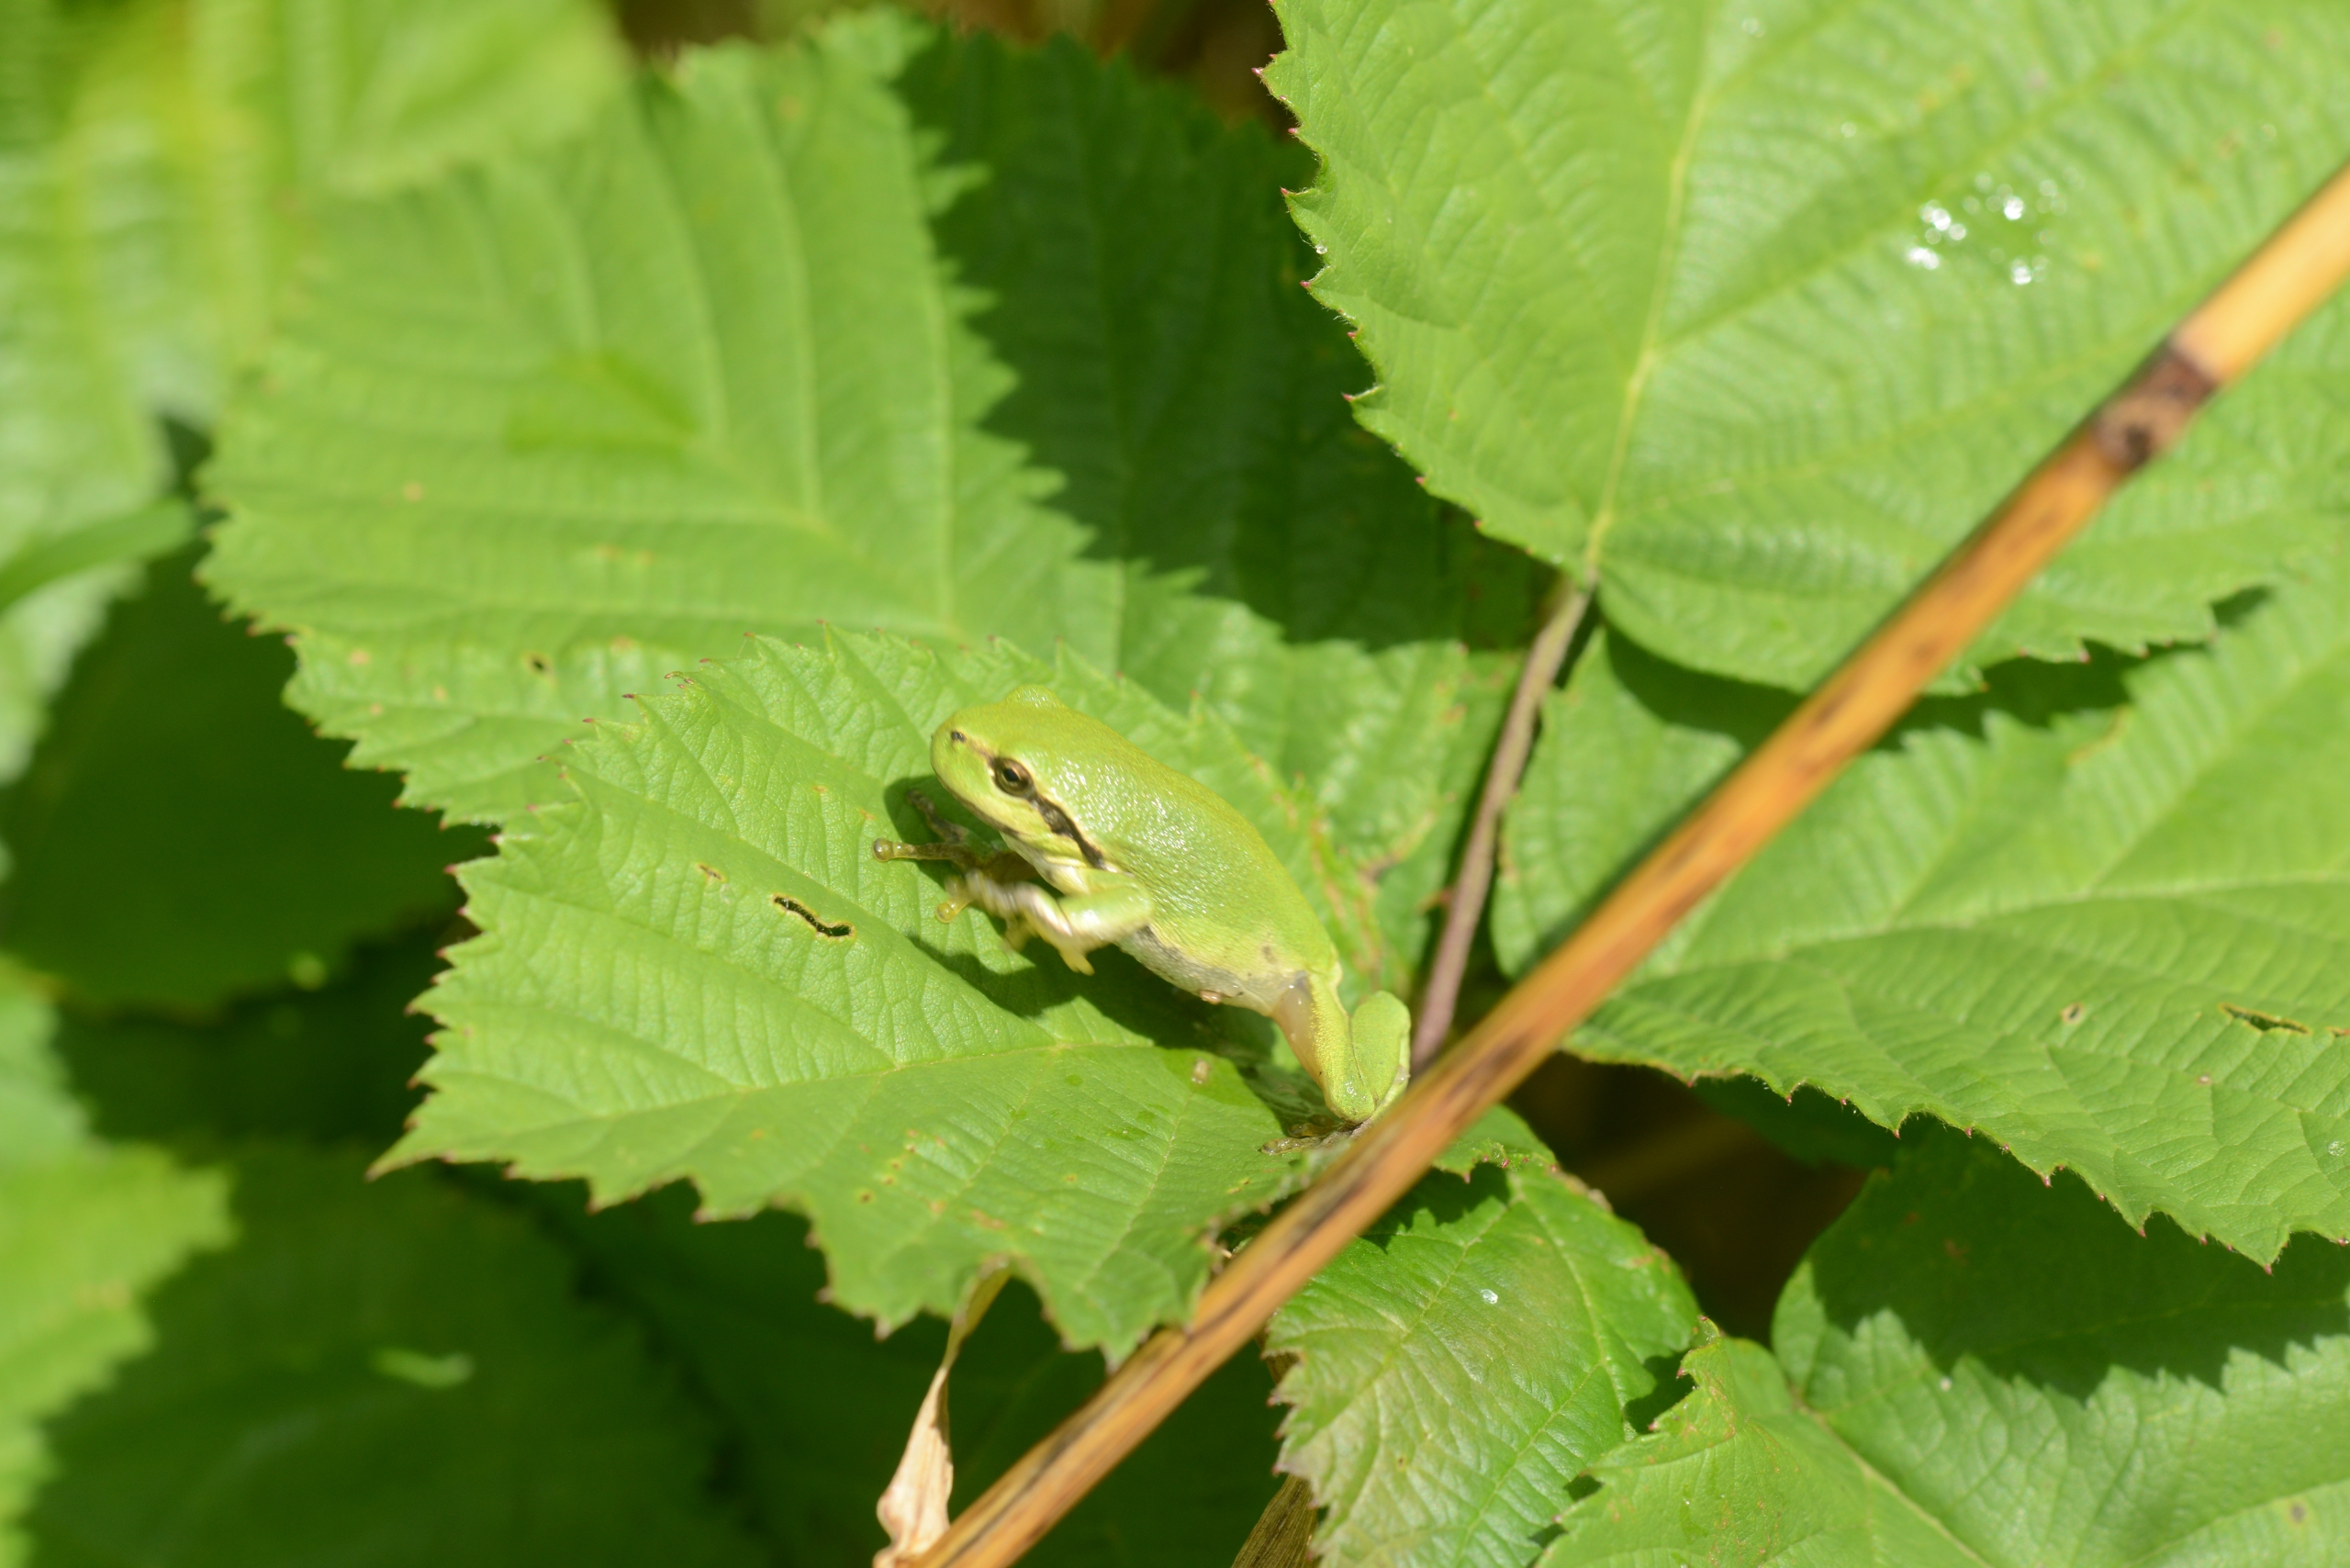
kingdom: Animalia
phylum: Chordata
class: Amphibia
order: Anura
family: Hylidae
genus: Hyla
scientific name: Hyla arborea
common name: Løvfrø
